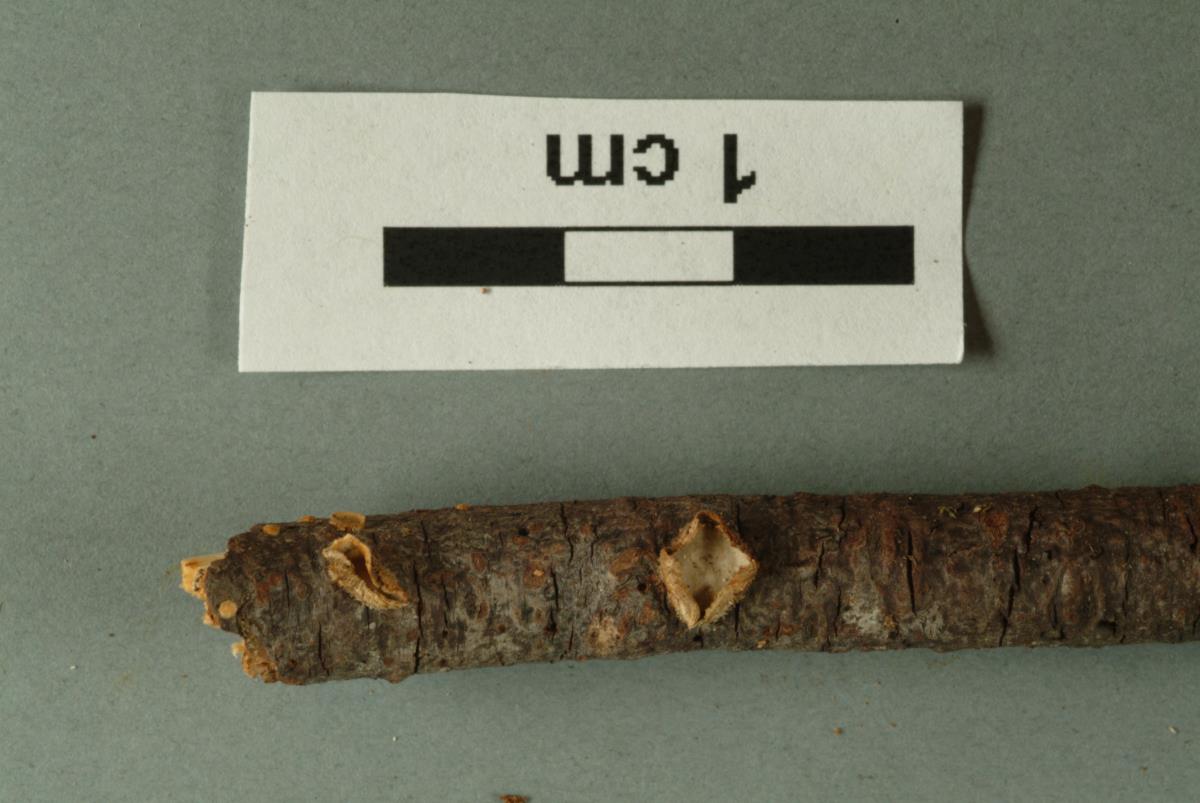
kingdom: Fungi
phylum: Basidiomycota
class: Agaricomycetes
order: Polyporales
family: Meruliaceae
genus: Phlebia
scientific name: Phlebia
